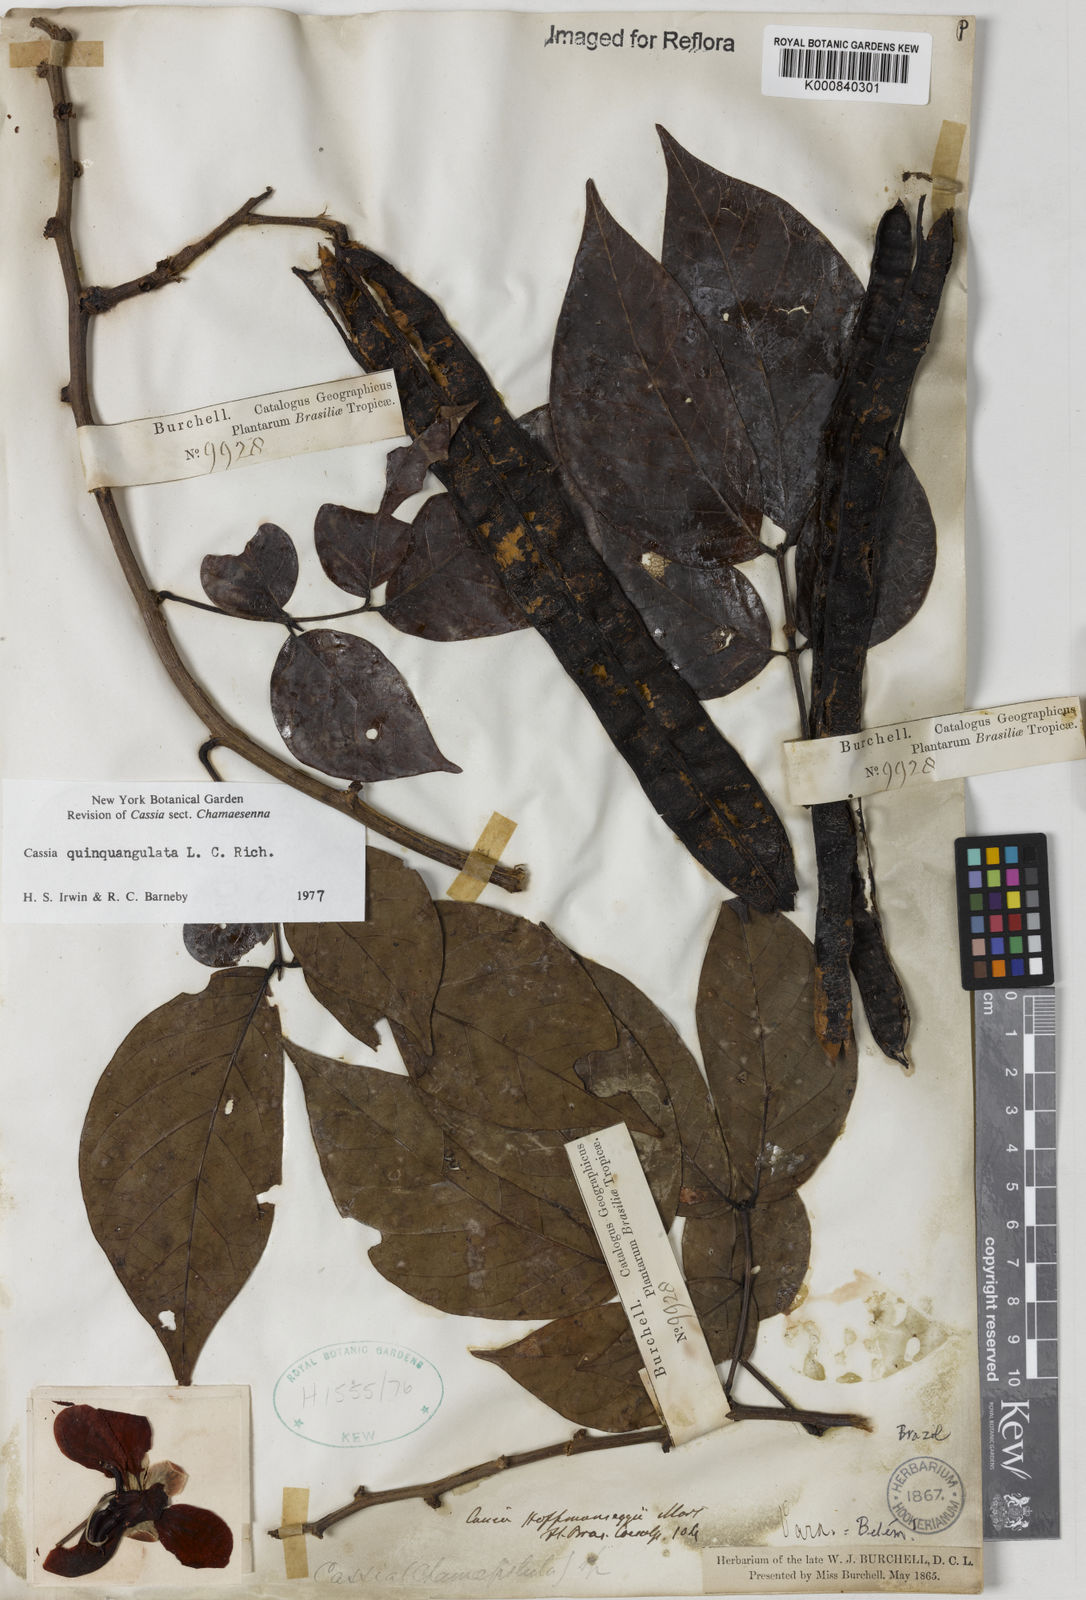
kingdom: Plantae
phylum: Tracheophyta
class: Magnoliopsida
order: Fabales
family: Fabaceae
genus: Senna
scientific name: Senna
